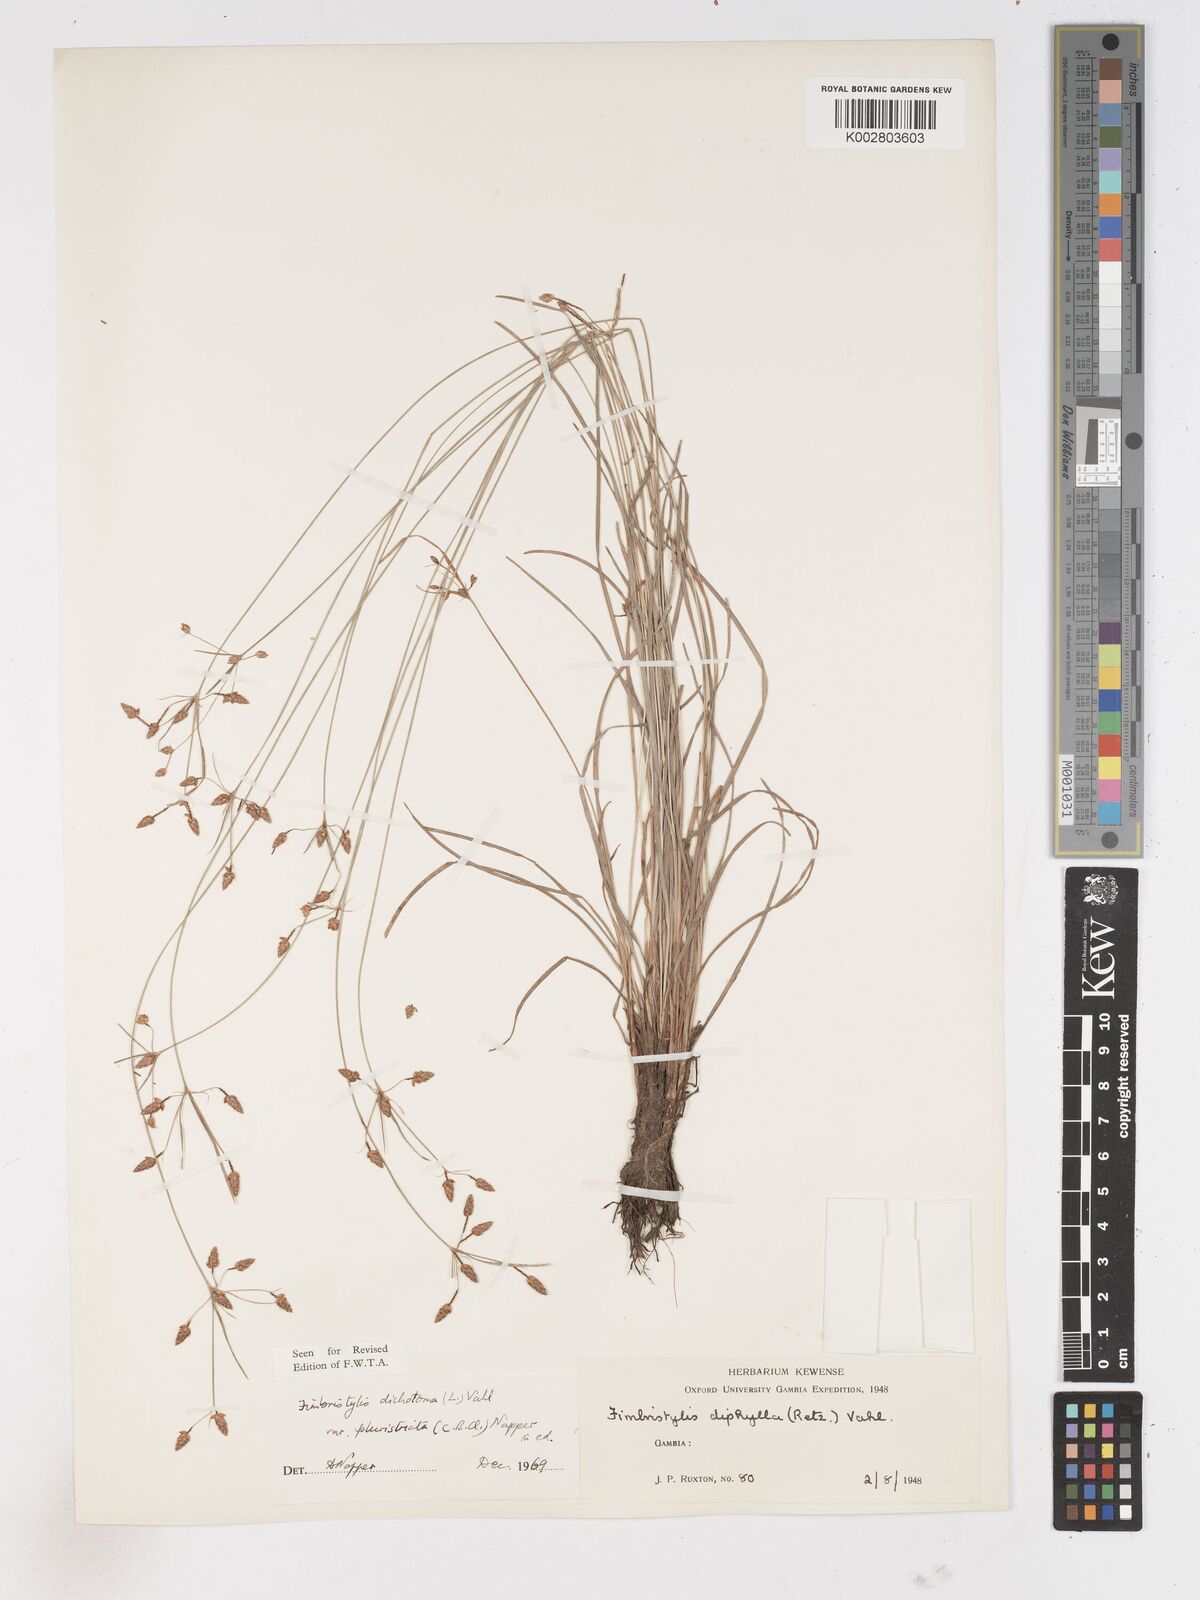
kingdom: Plantae
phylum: Tracheophyta
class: Liliopsida
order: Poales
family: Cyperaceae
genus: Fimbristylis
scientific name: Fimbristylis dichotoma
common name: Forked fimbry
